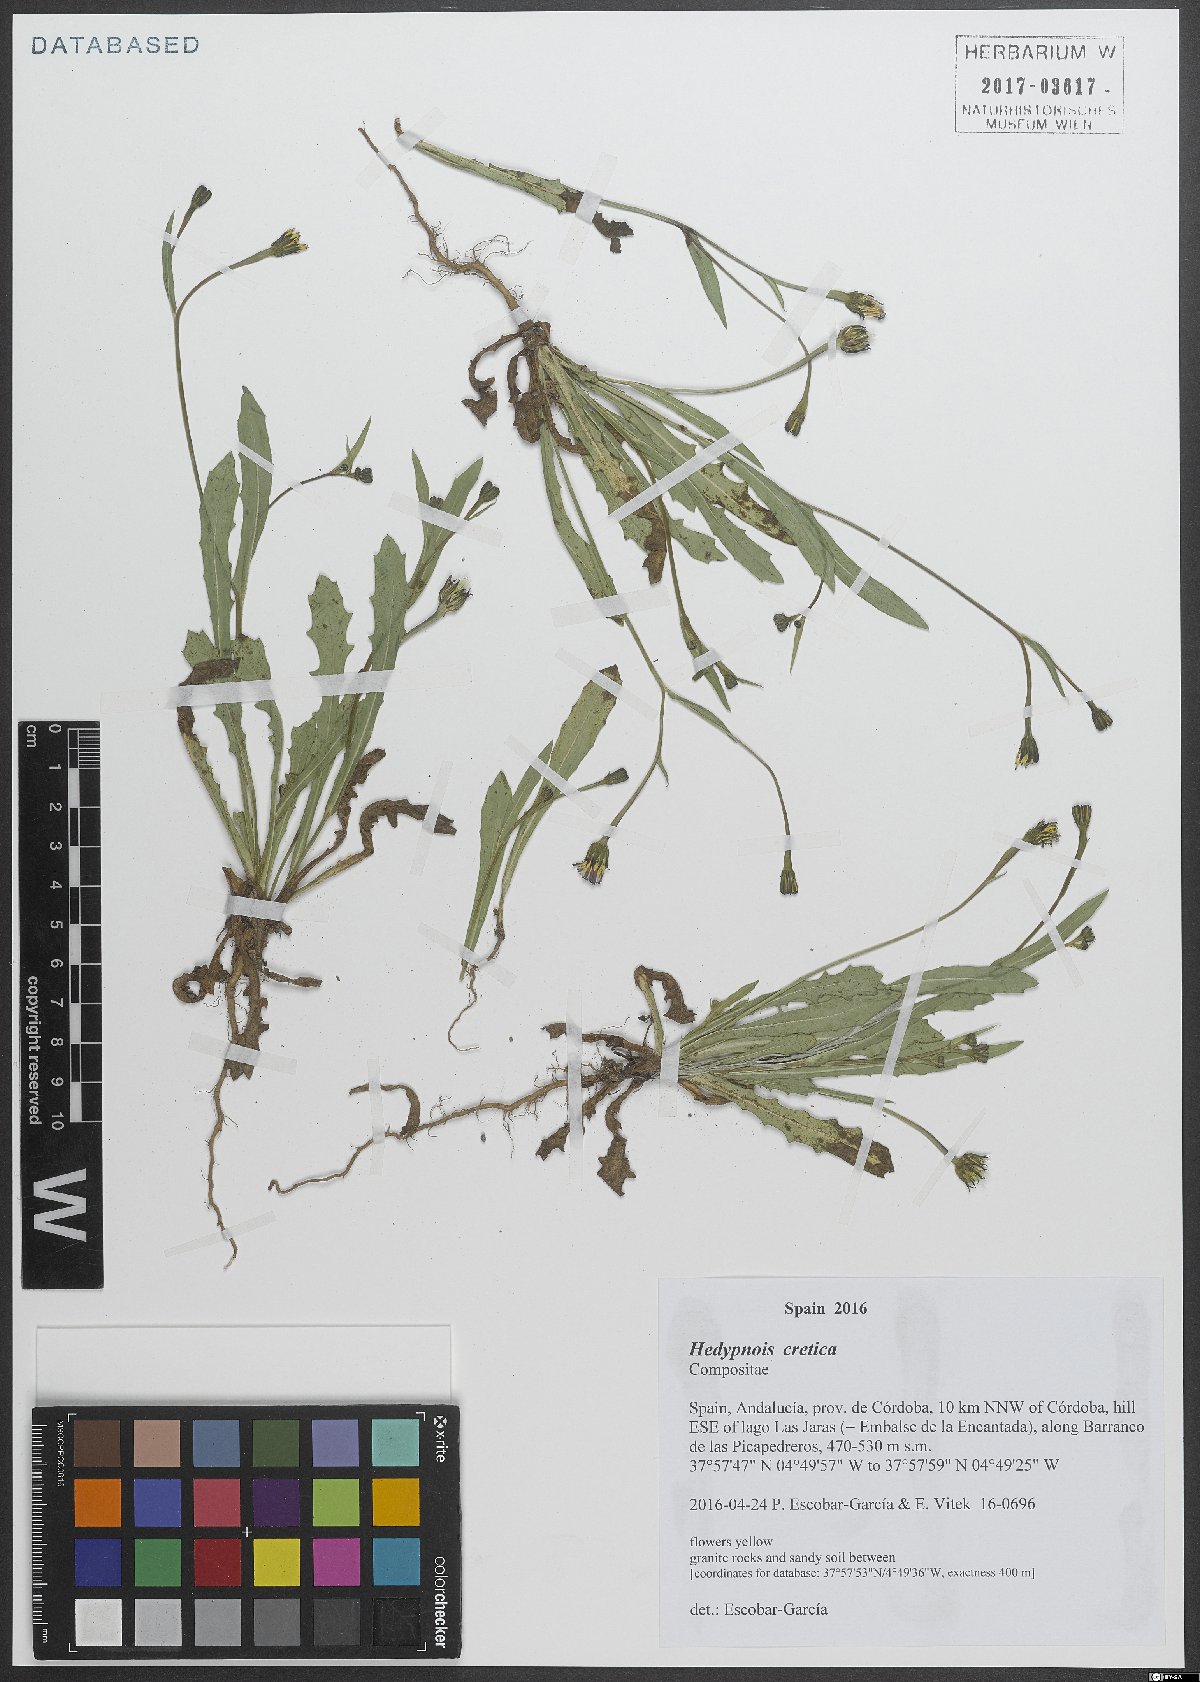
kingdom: Plantae
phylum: Tracheophyta
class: Magnoliopsida
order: Asterales
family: Asteraceae
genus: Hedypnois
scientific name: Hedypnois cretica
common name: Scaly hawkbit
